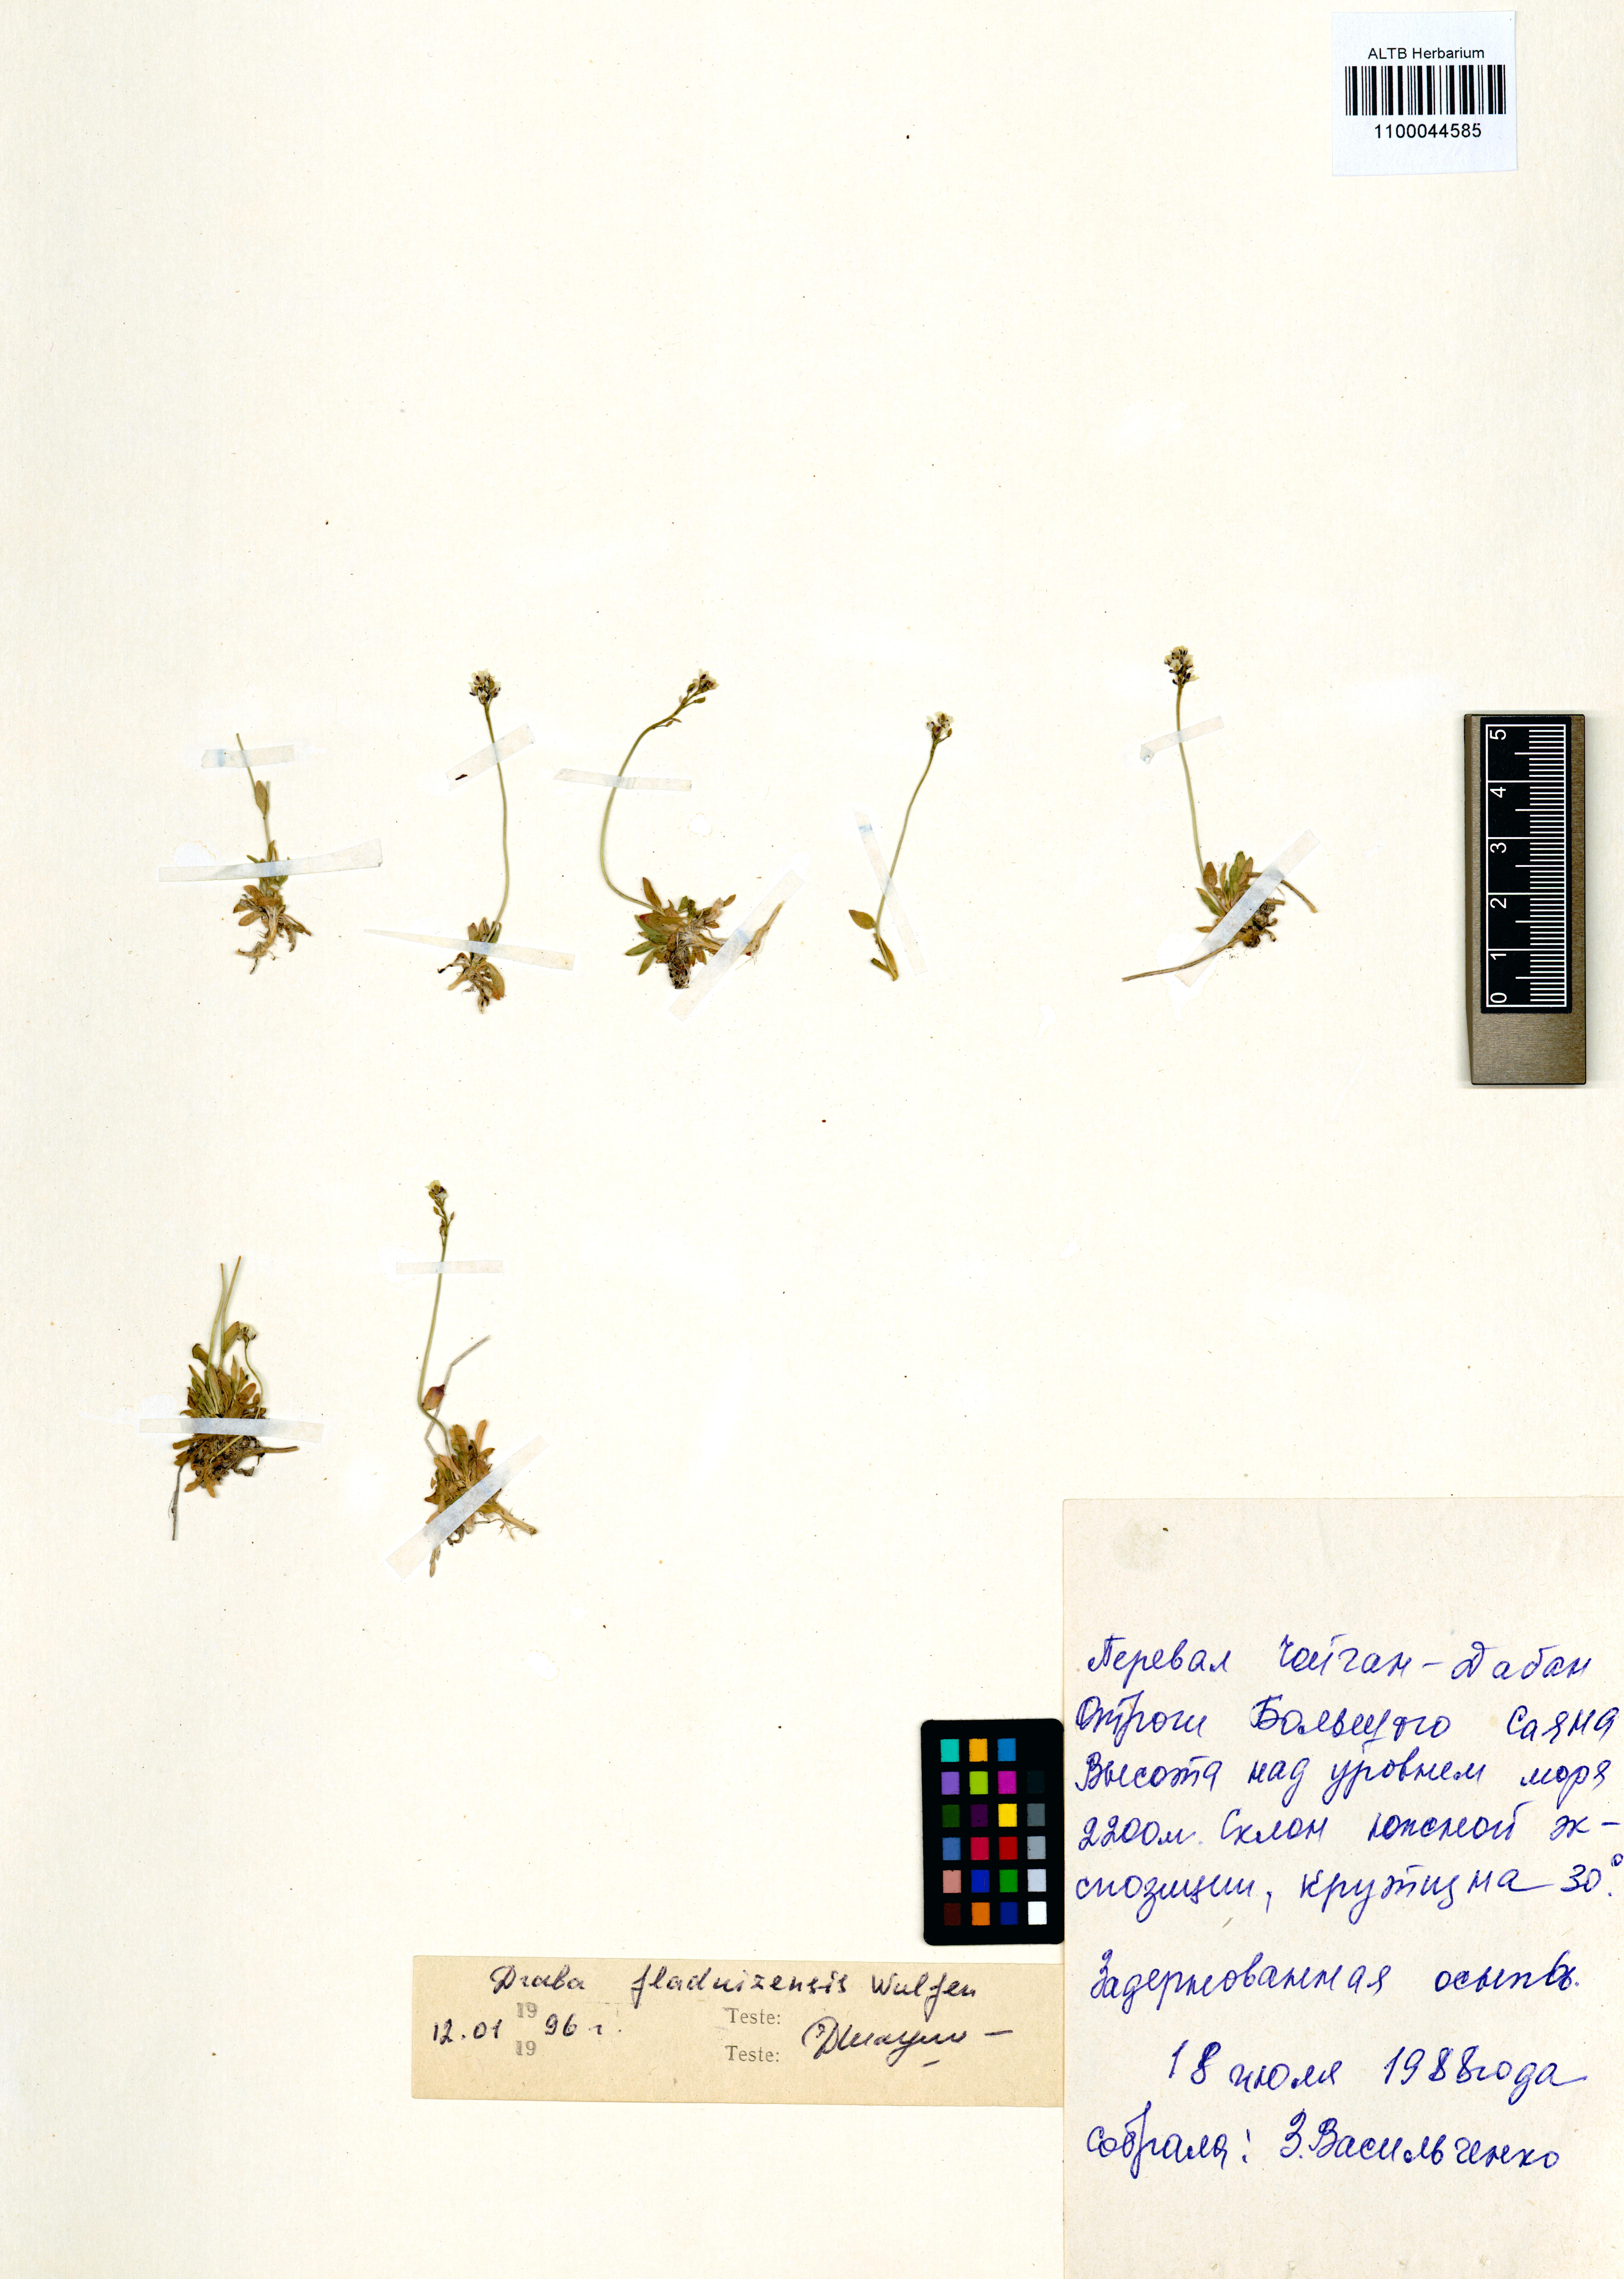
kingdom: Plantae
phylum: Tracheophyta
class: Magnoliopsida
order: Brassicales
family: Brassicaceae
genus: Draba
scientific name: Draba fladnizensis
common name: Austrian draba
